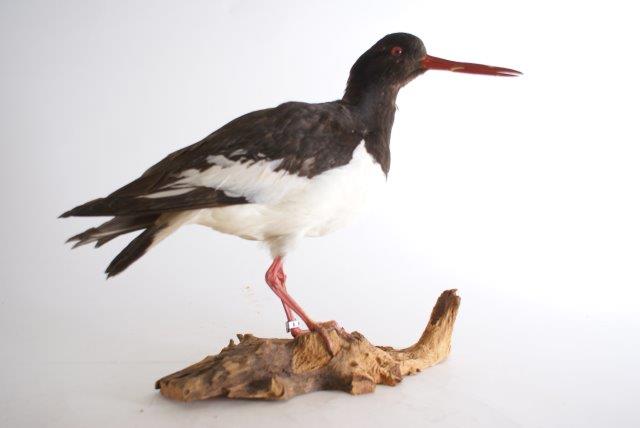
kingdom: Animalia
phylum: Chordata
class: Aves
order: Charadriiformes
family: Haematopodidae
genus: Haematopus
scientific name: Haematopus ostralegus
